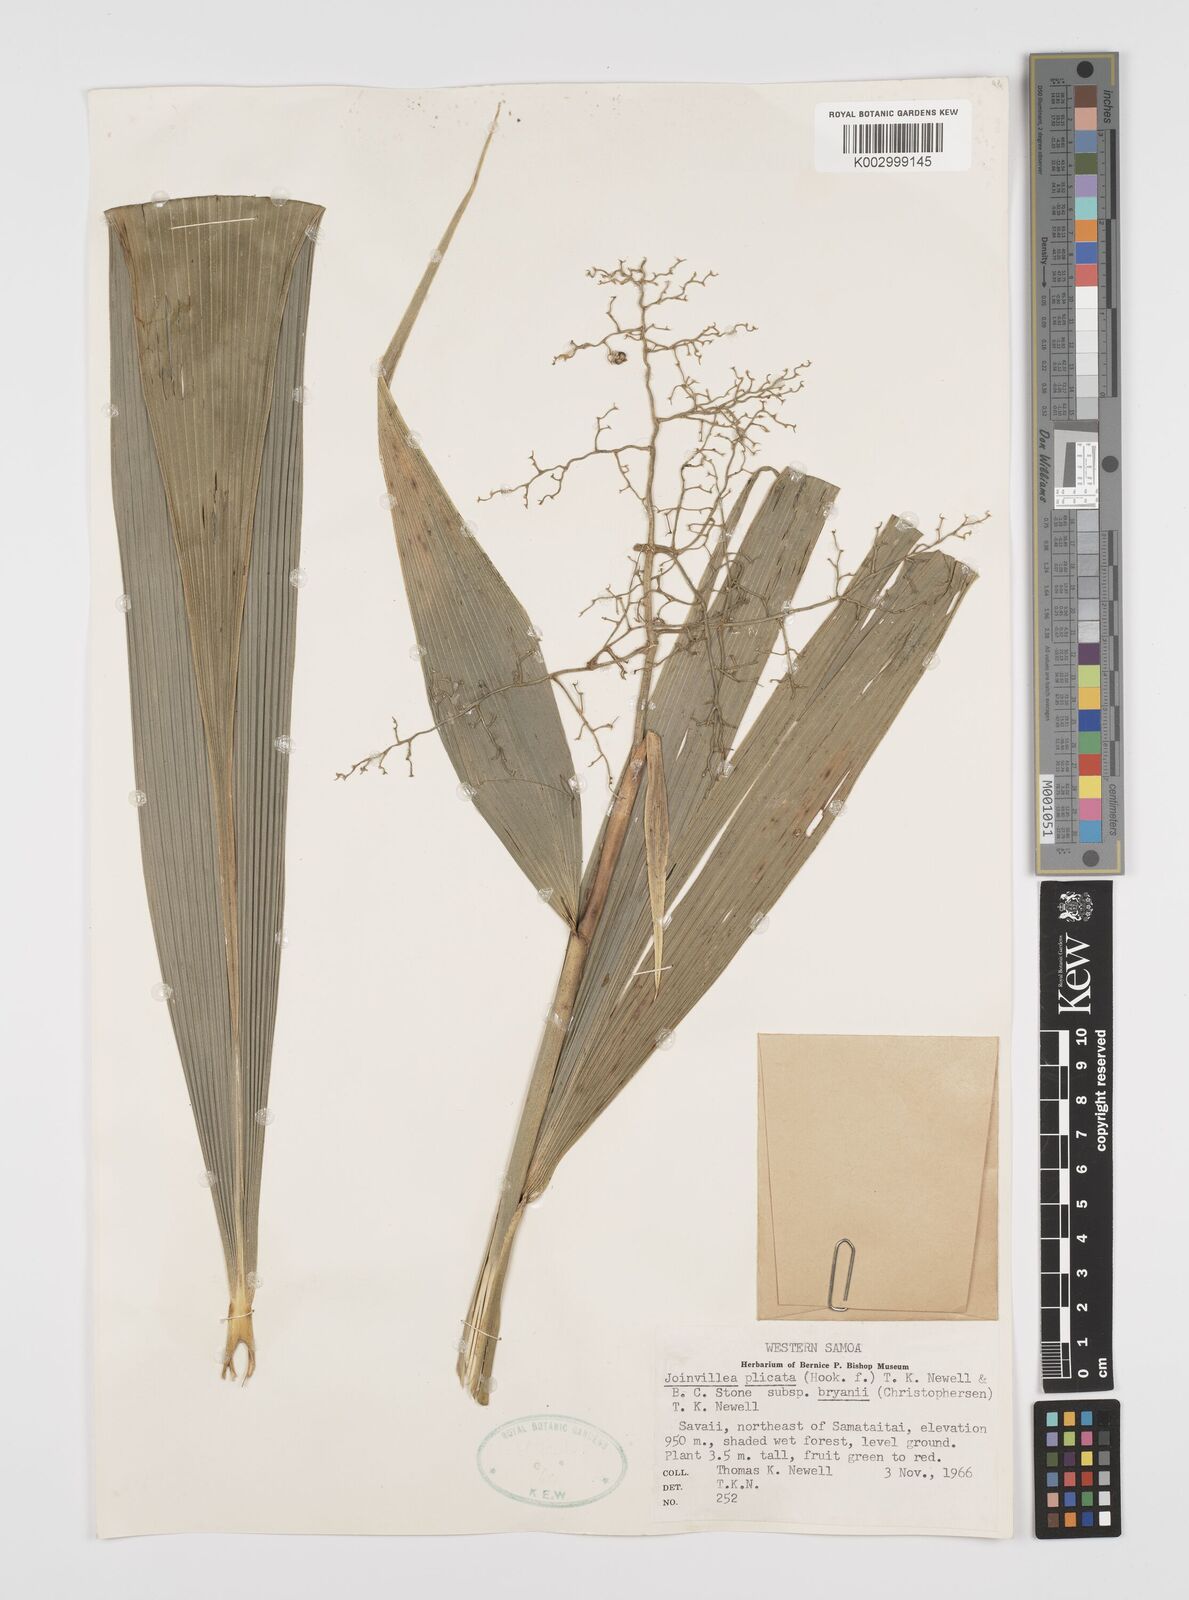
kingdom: Plantae
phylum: Tracheophyta
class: Liliopsida
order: Poales
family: Joinvilleaceae
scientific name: Joinvilleaceae
